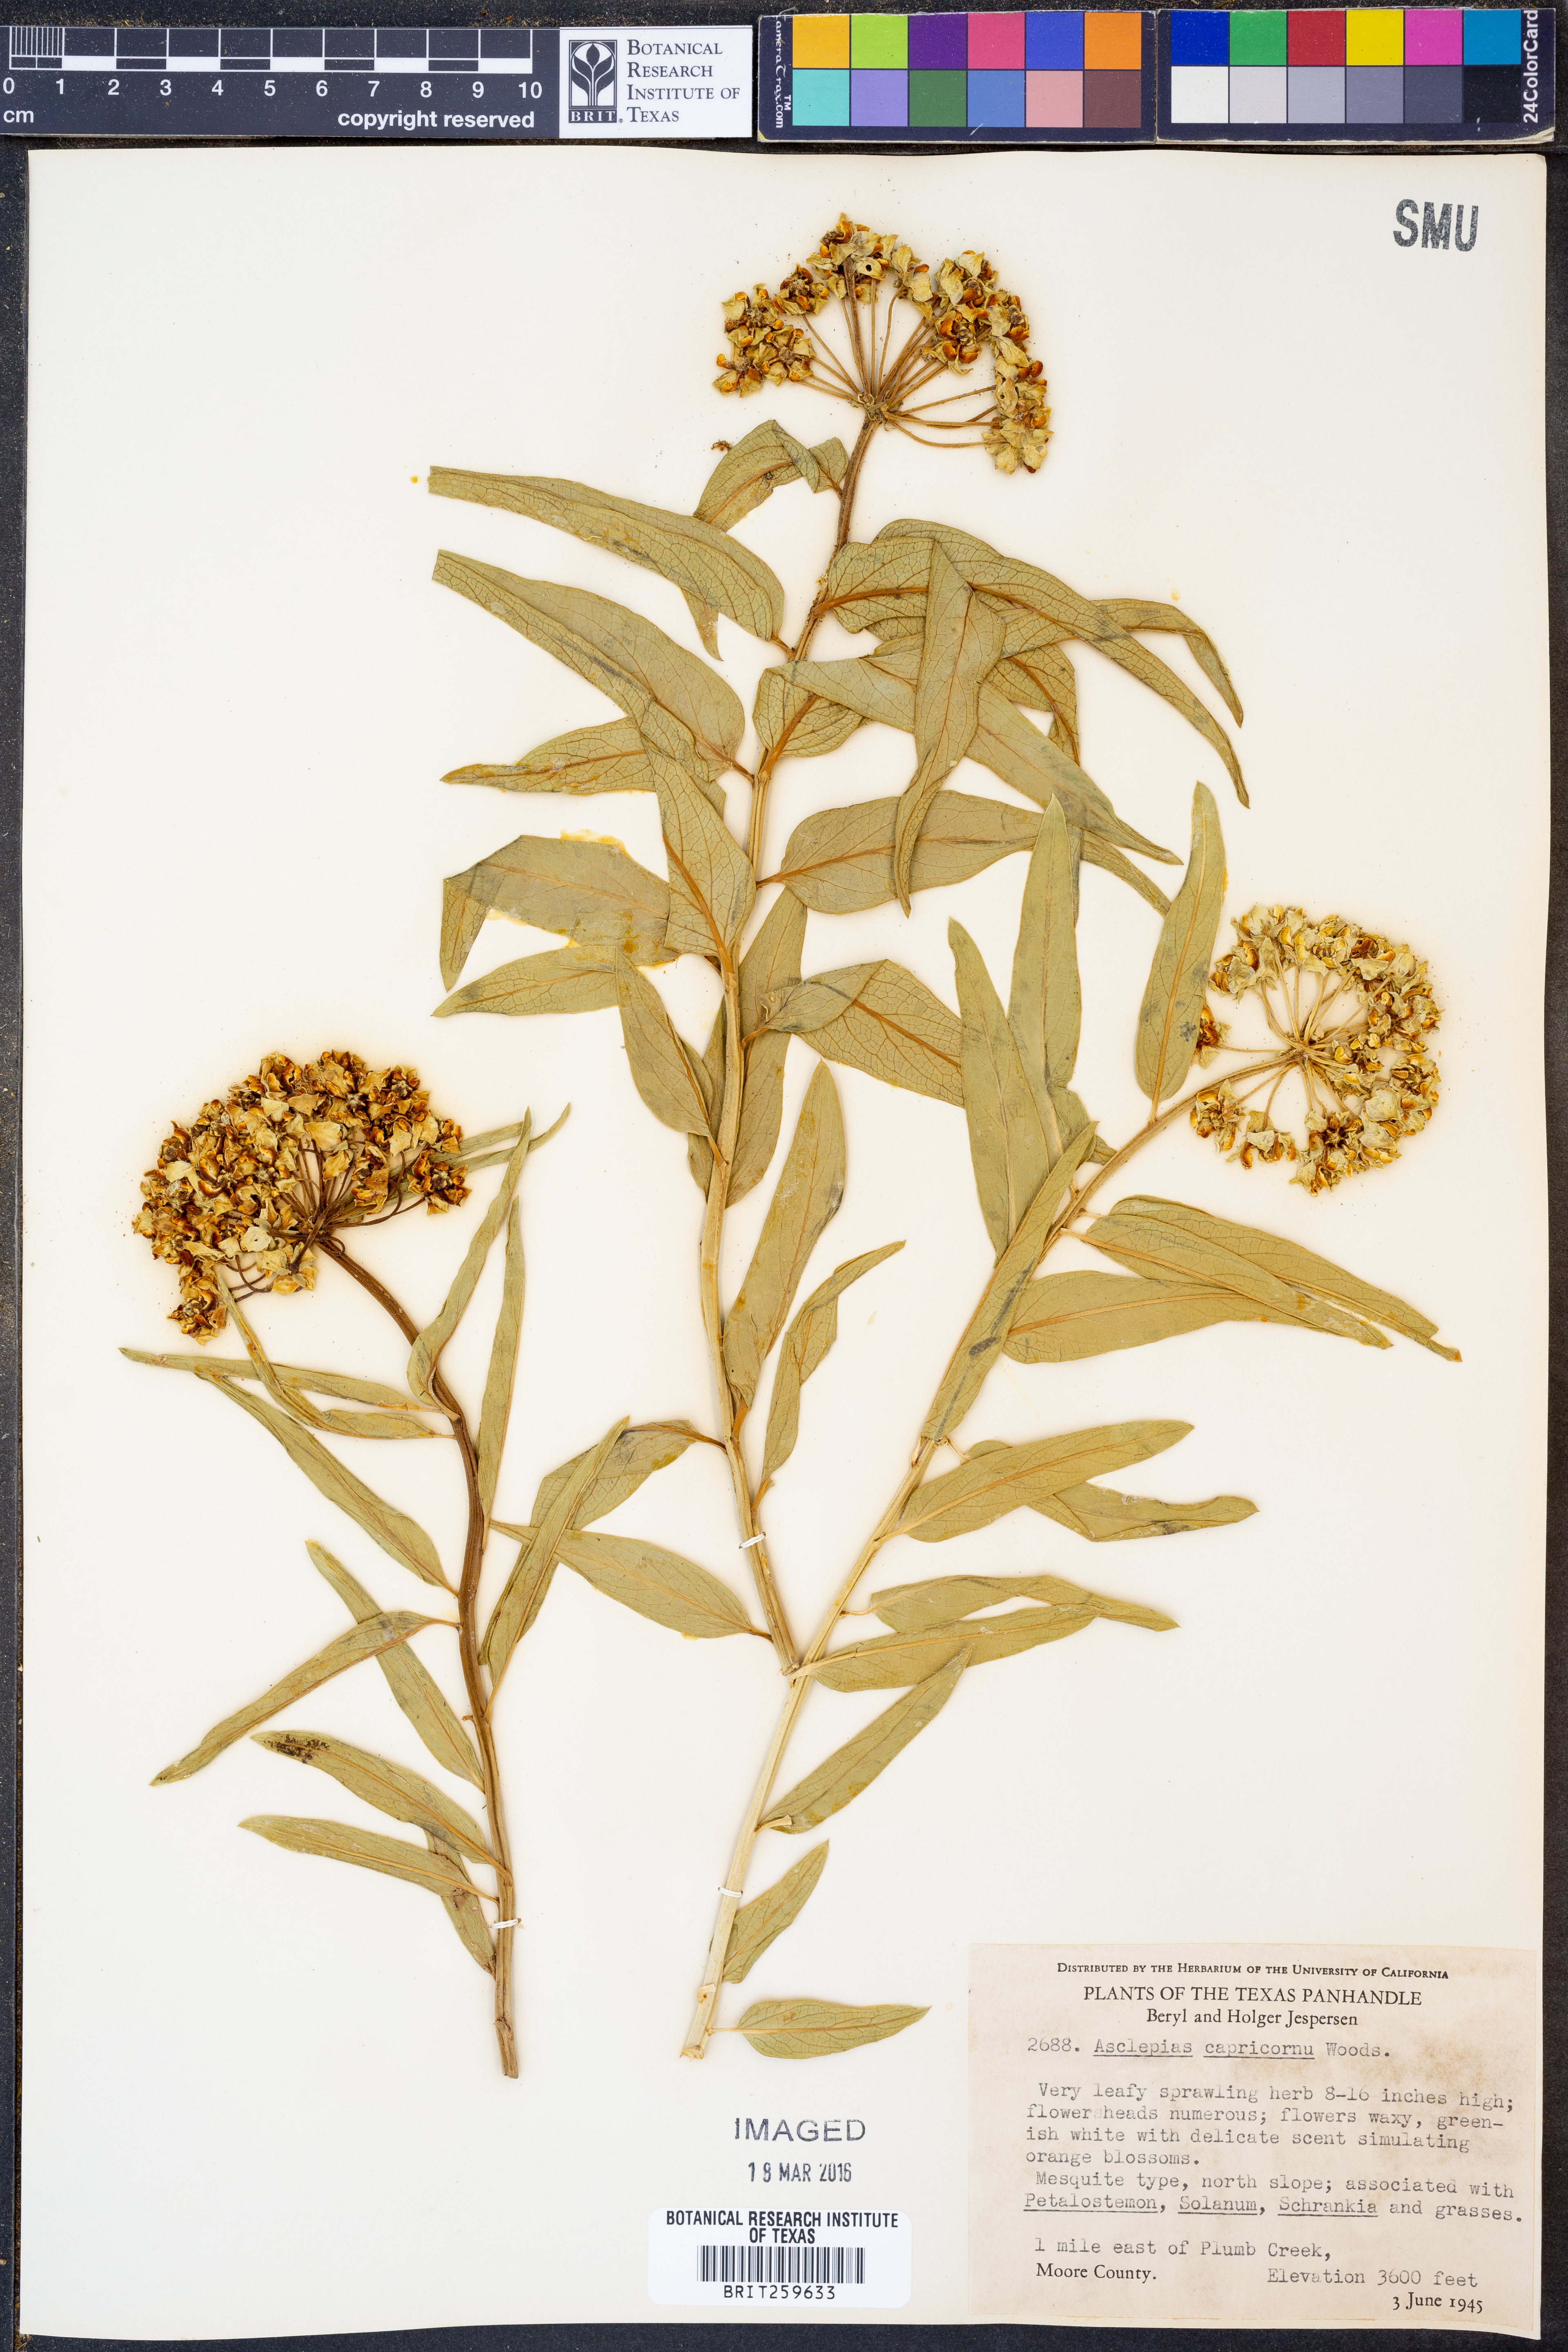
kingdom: Plantae
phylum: Tracheophyta
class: Magnoliopsida
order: Gentianales
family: Apocynaceae
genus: Asclepias
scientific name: Asclepias asperula
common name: Antelope horns
